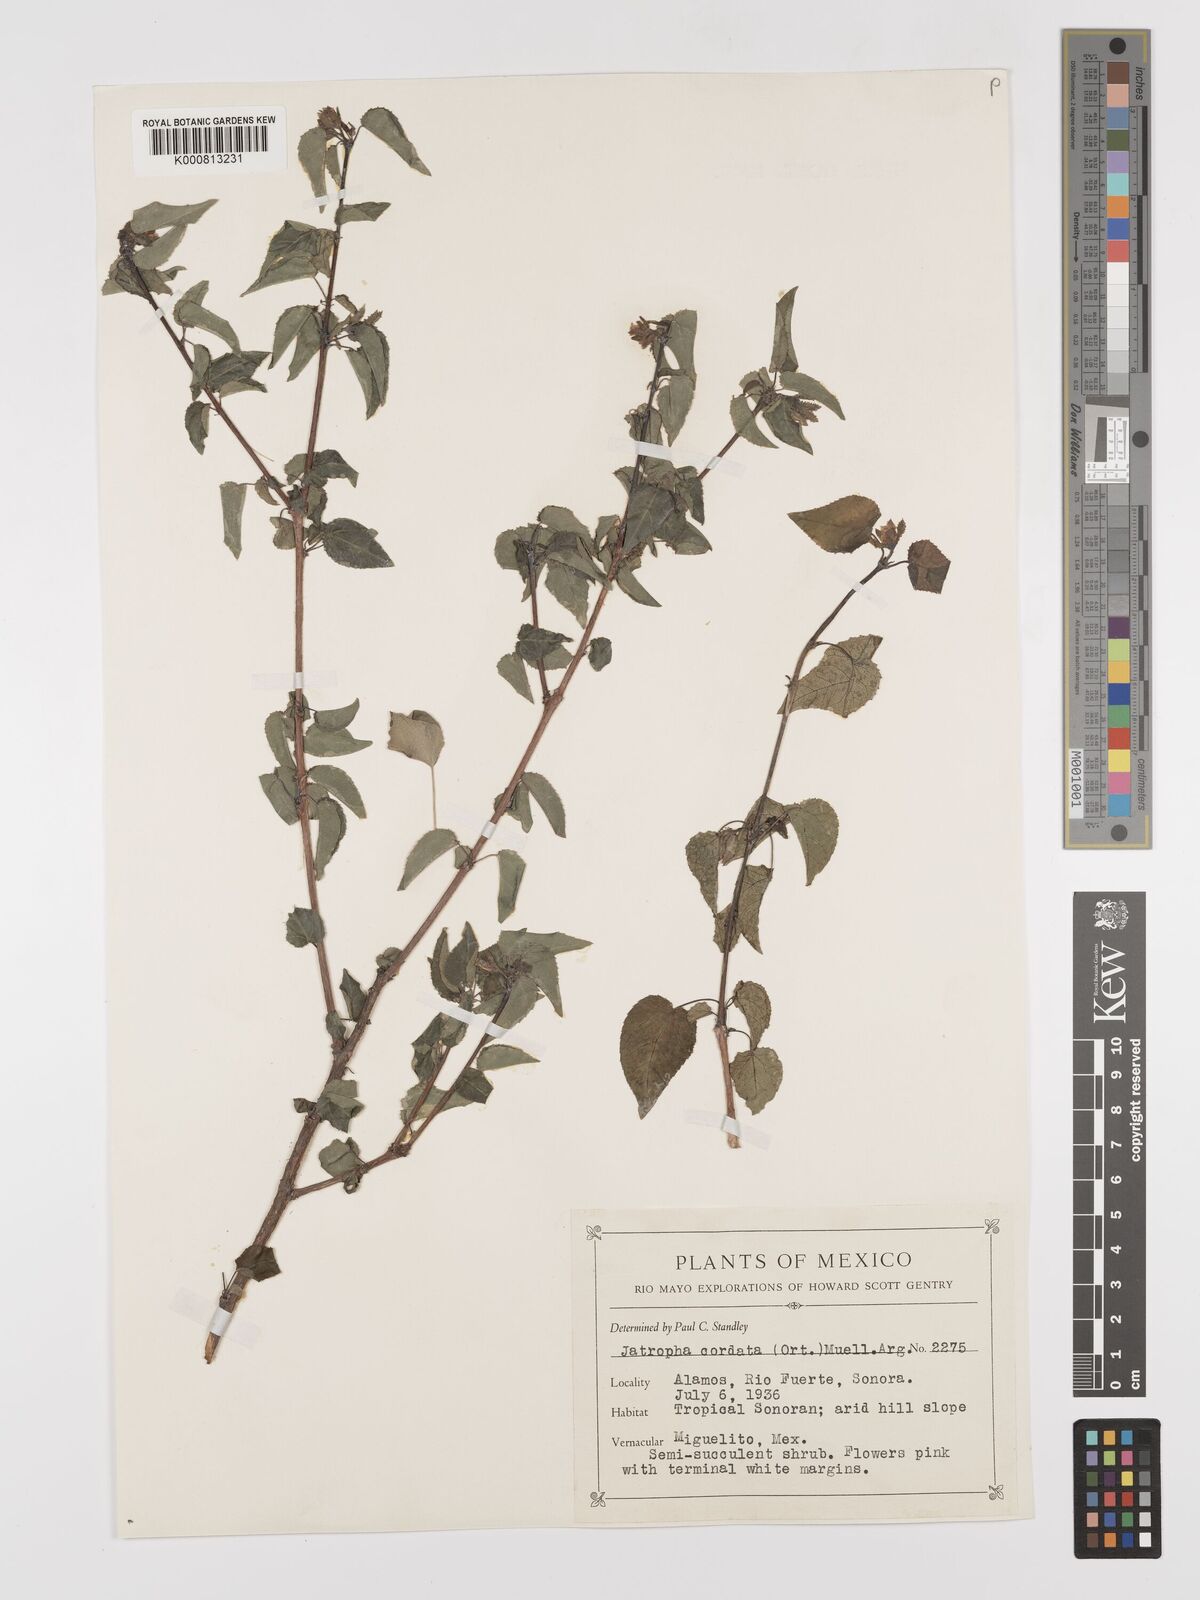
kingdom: Plantae
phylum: Tracheophyta
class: Magnoliopsida
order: Malpighiales
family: Euphorbiaceae
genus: Jatropha
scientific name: Jatropha
